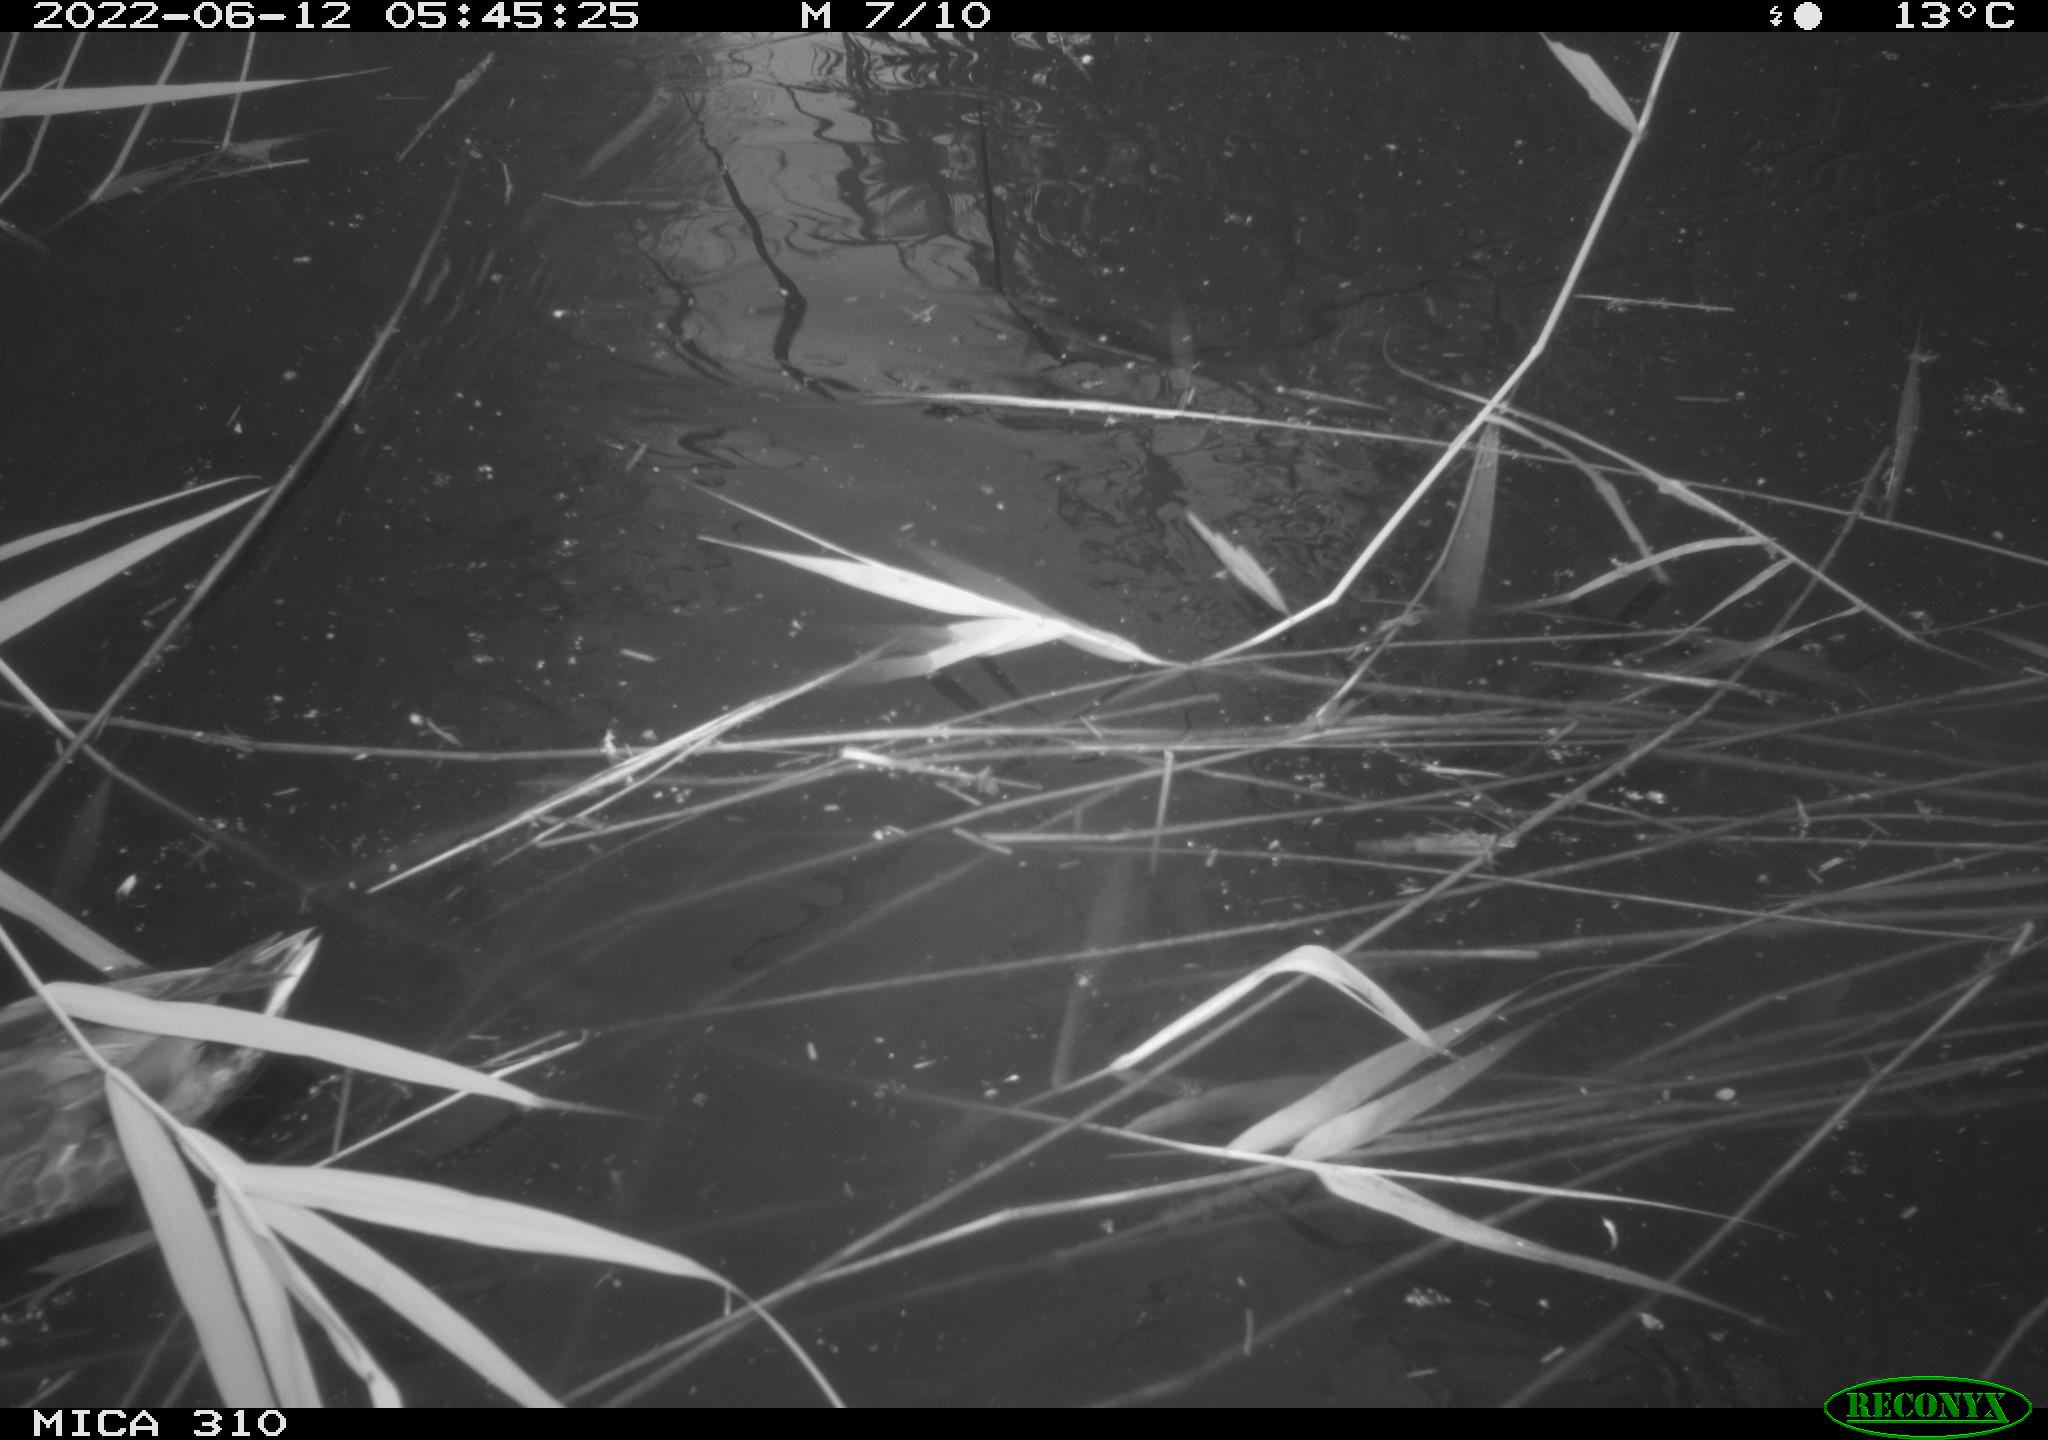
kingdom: Animalia
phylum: Chordata
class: Aves
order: Anseriformes
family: Anatidae
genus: Anas
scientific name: Anas platyrhynchos
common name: Mallard
